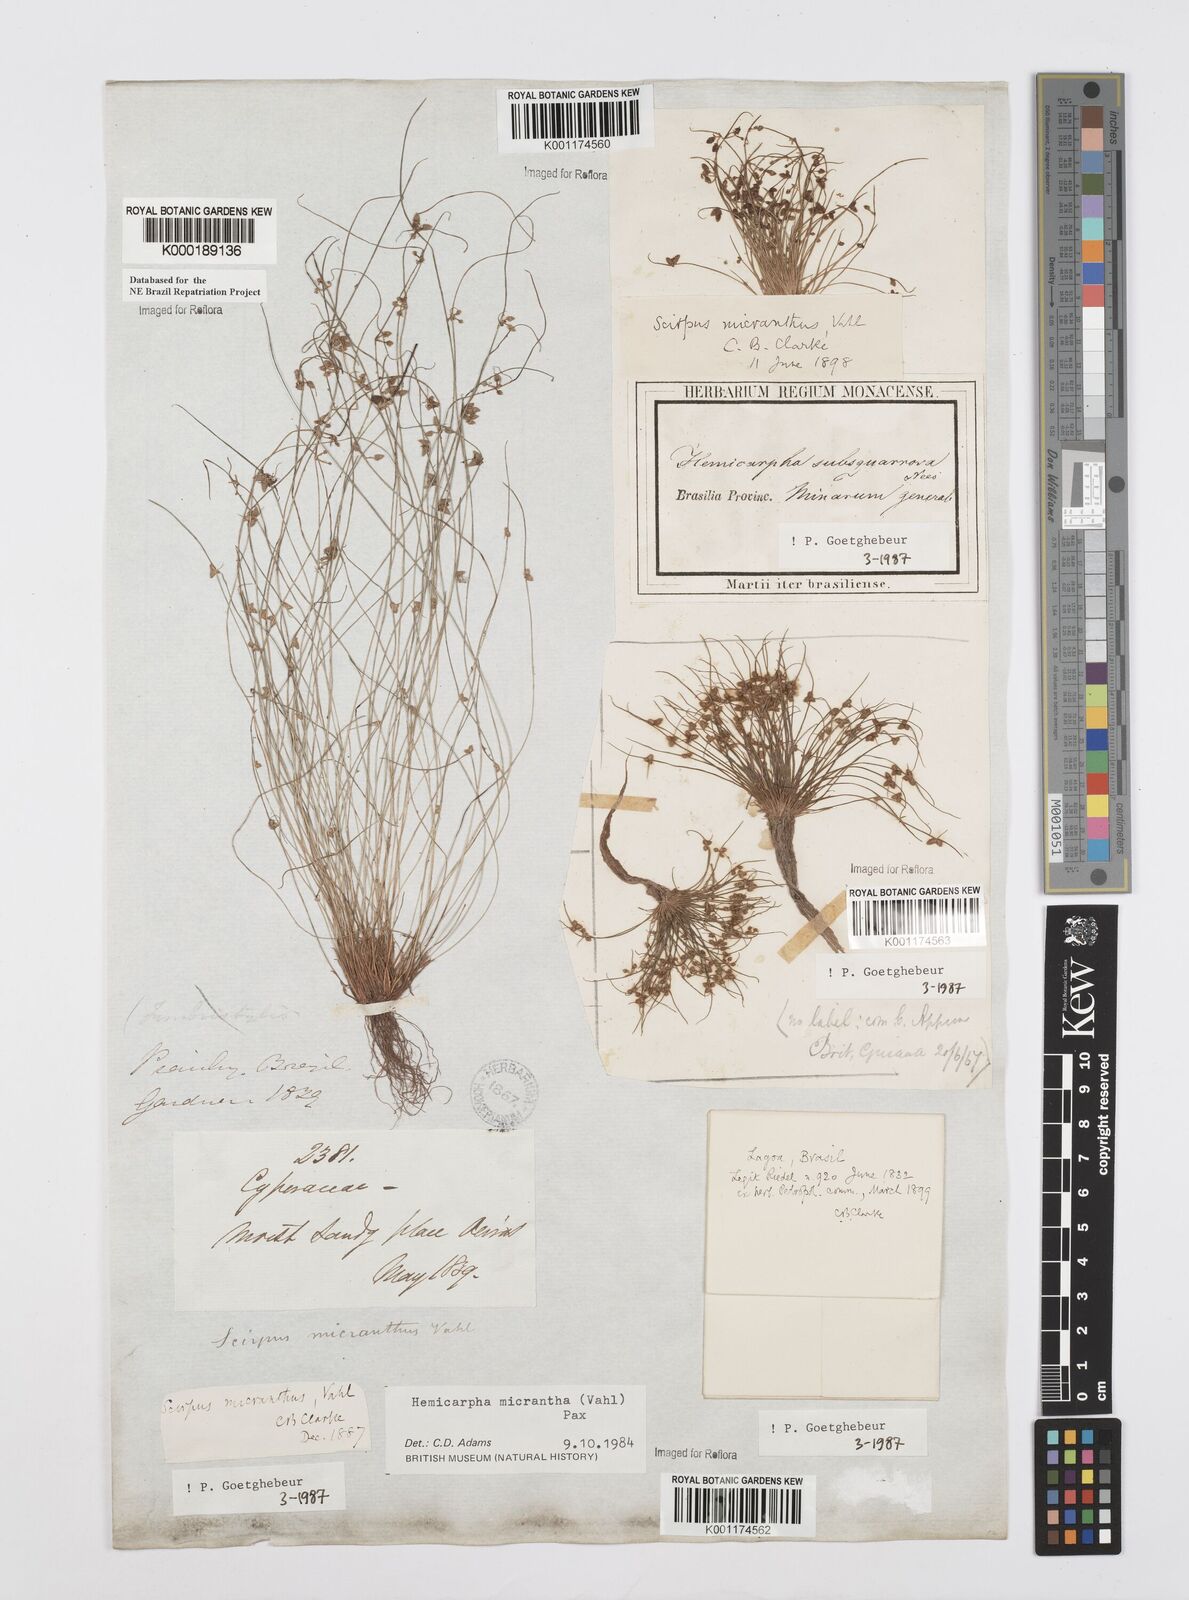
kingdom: Plantae
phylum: Tracheophyta
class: Liliopsida
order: Poales
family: Cyperaceae
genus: Cyperus
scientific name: Cyperus
